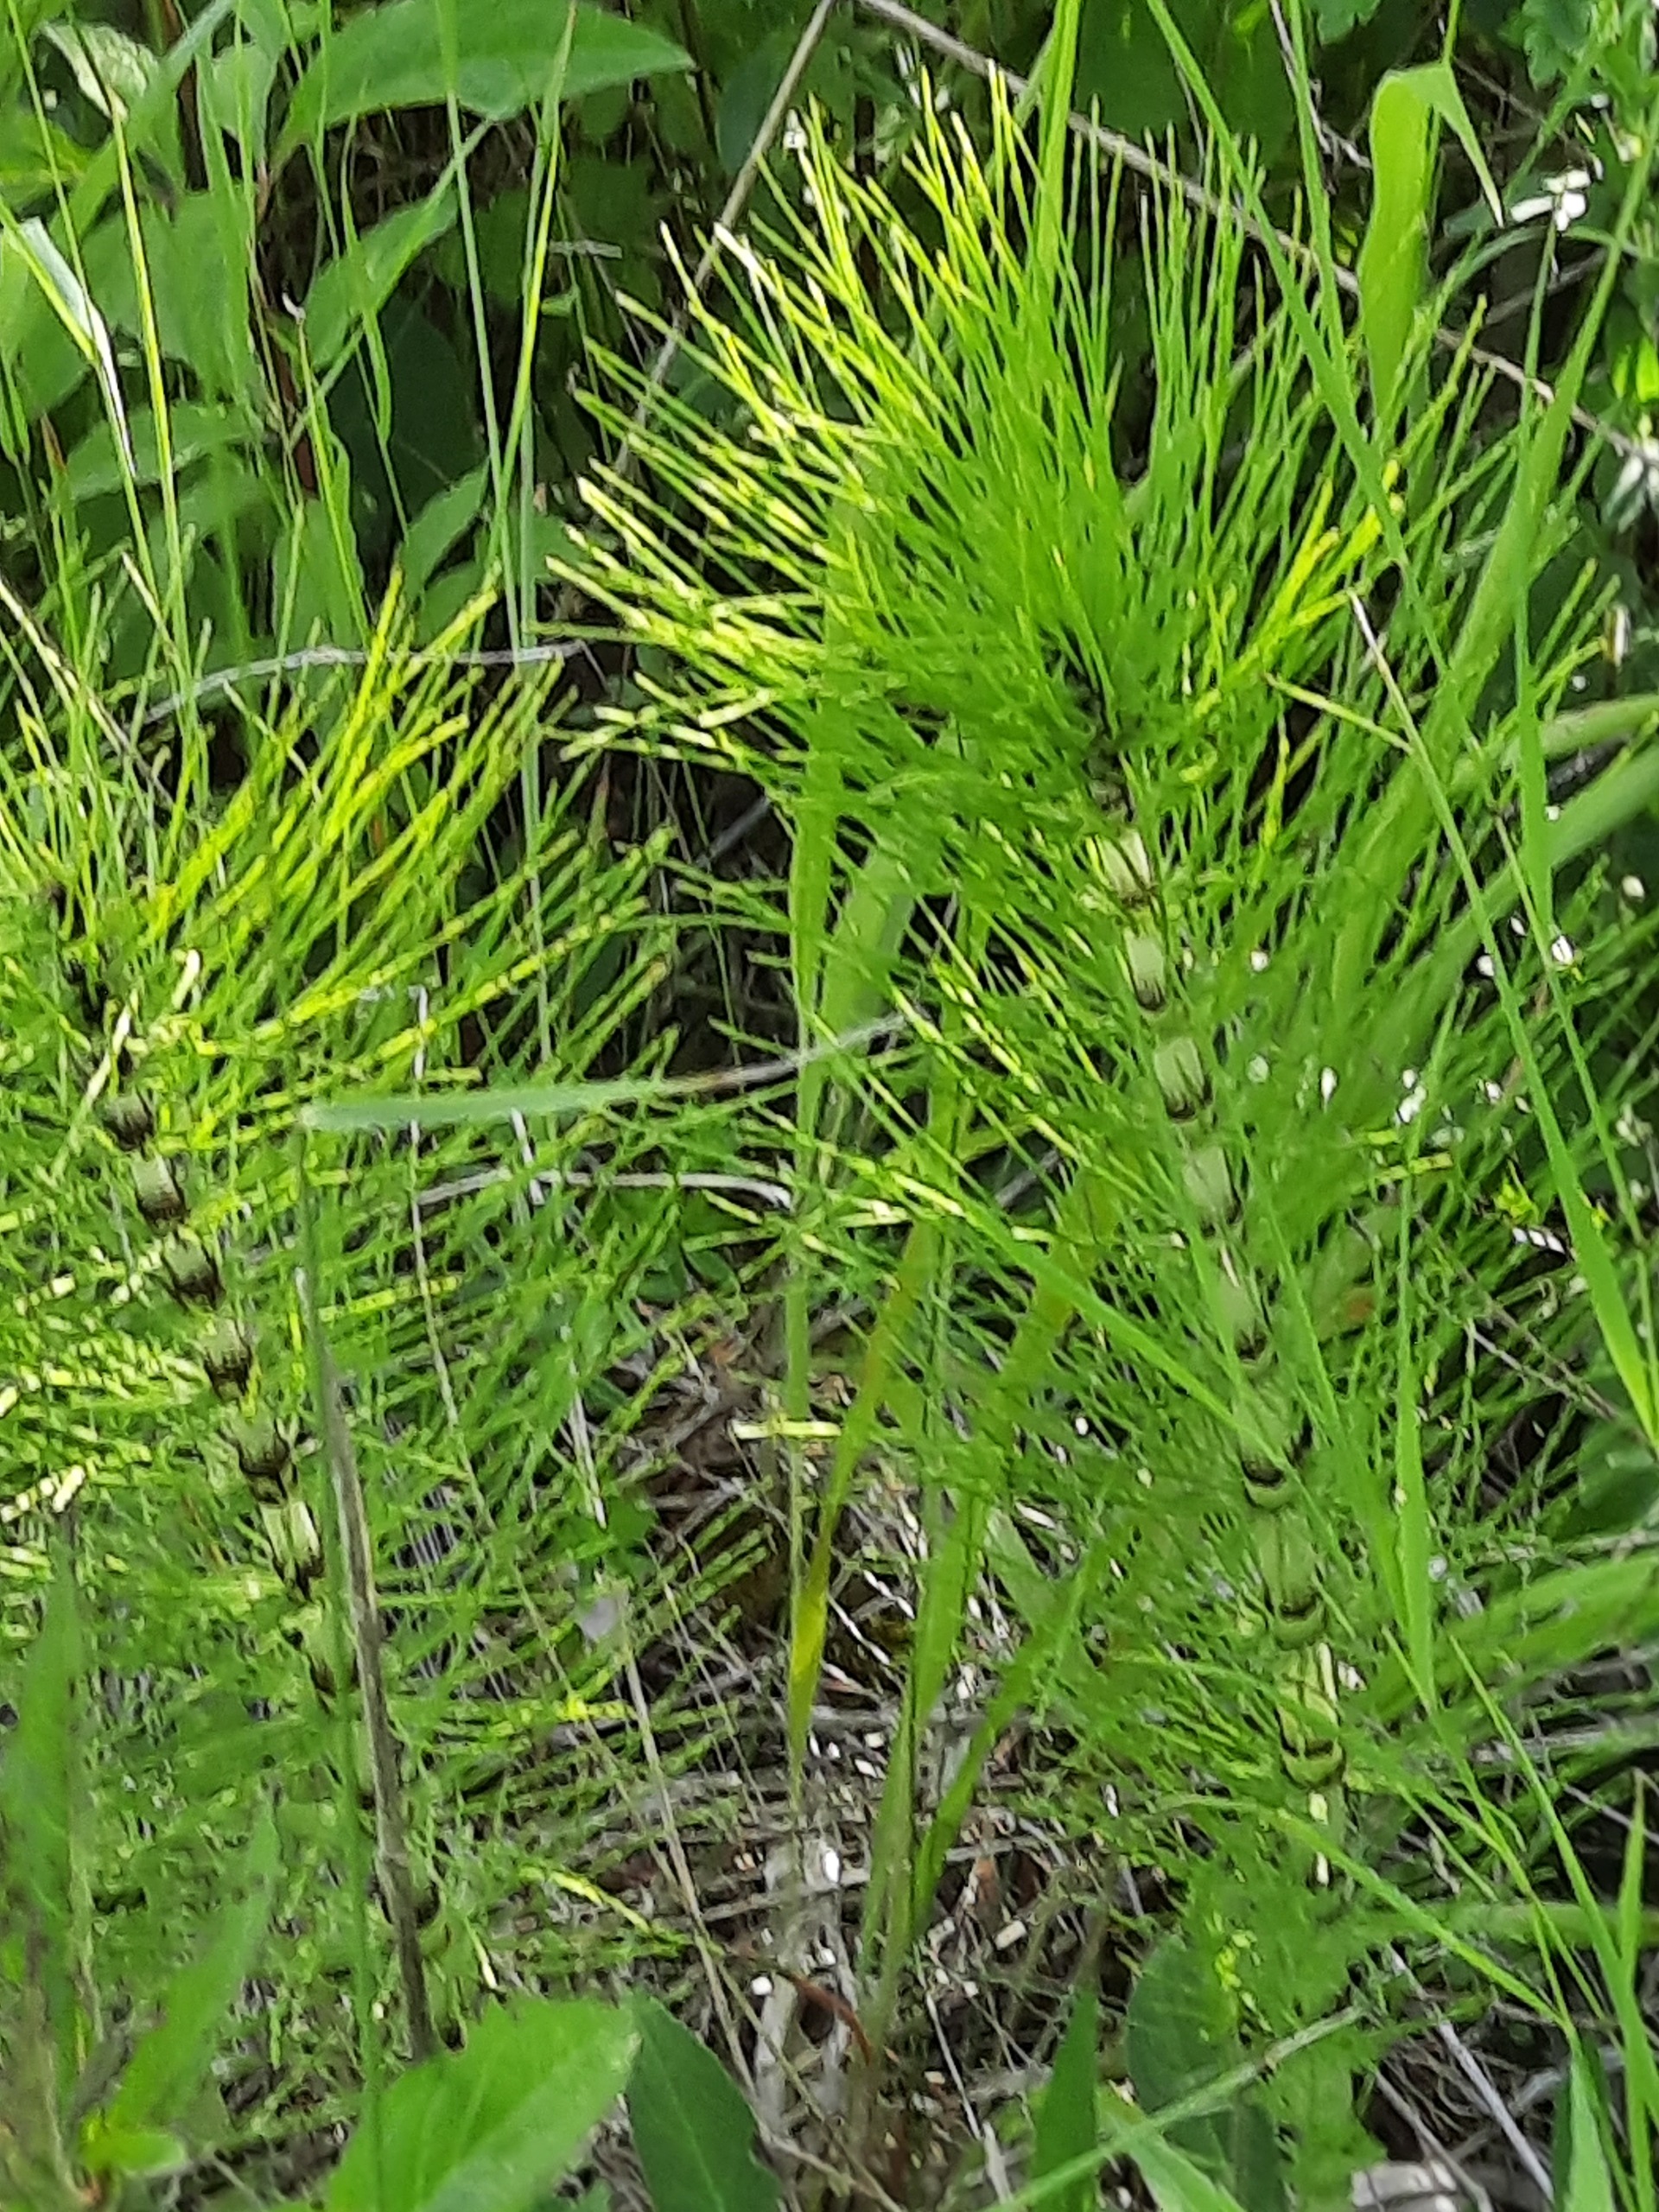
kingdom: Plantae
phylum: Tracheophyta
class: Polypodiopsida
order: Equisetales
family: Equisetaceae
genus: Equisetum
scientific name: Equisetum telmateia
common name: Elfenbens-padderok
